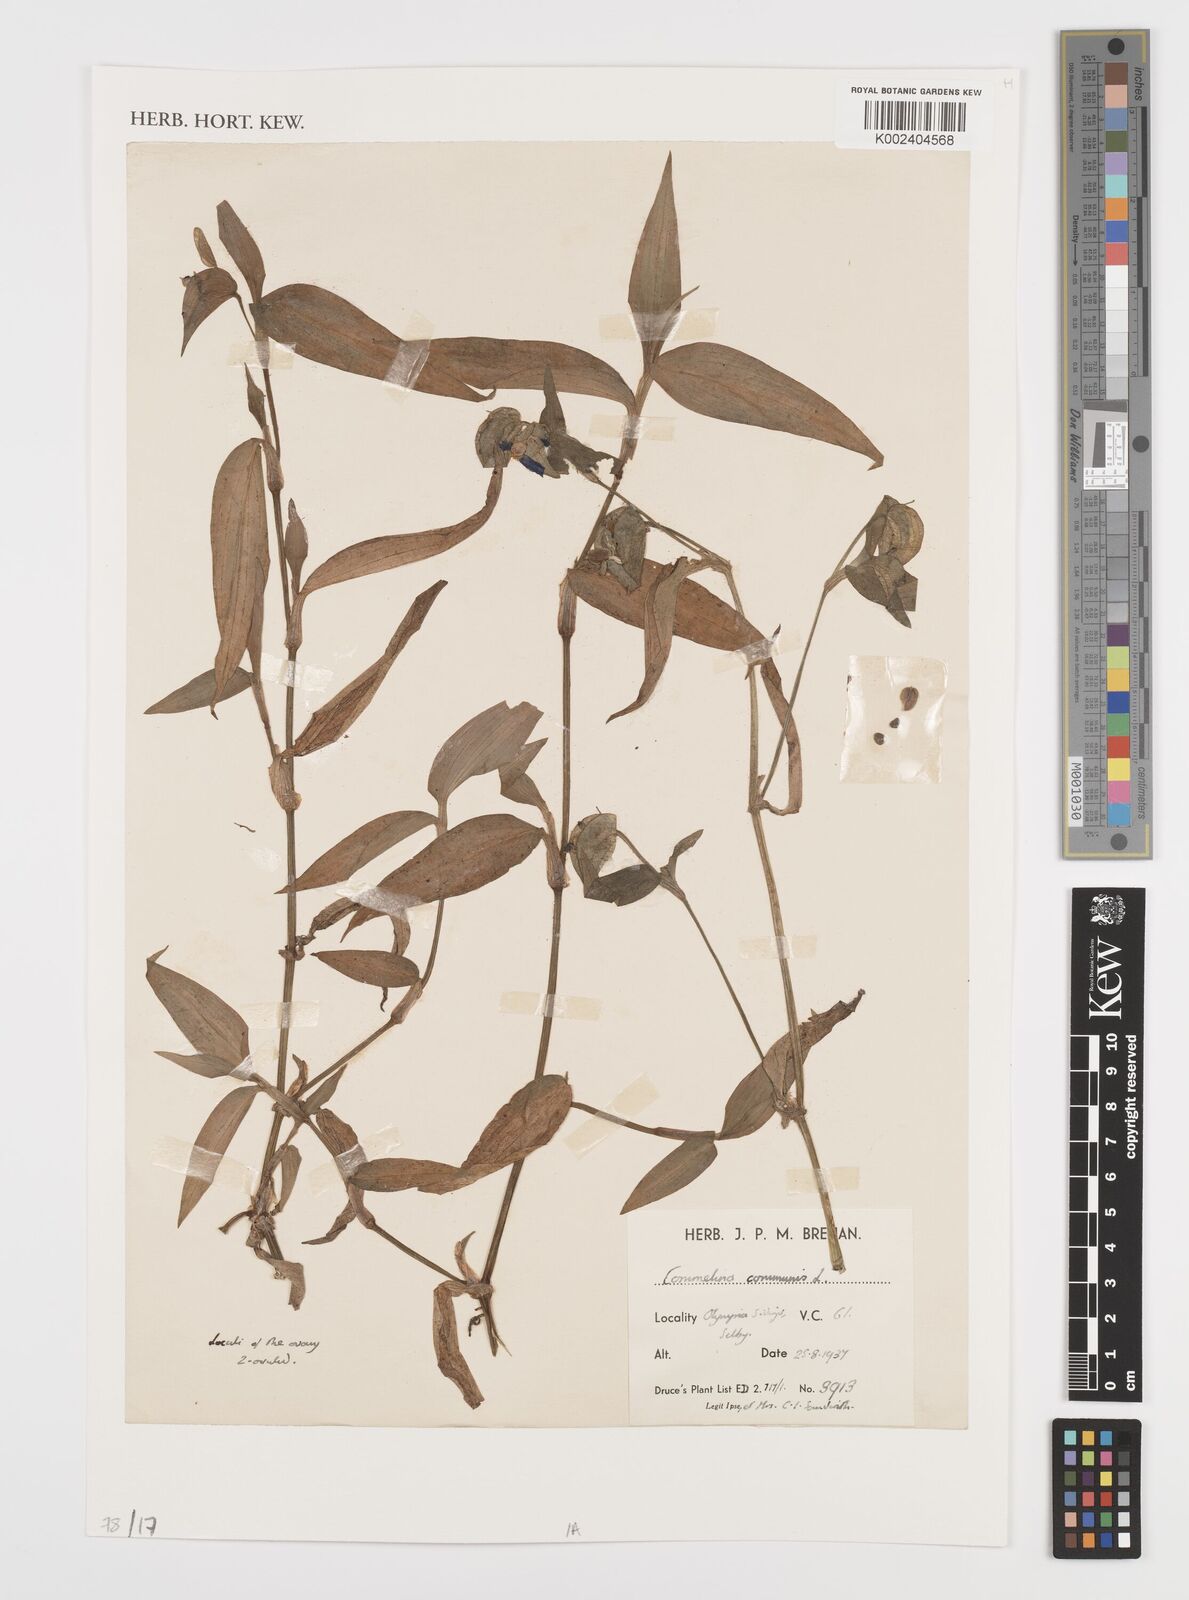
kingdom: Plantae
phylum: Tracheophyta
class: Liliopsida
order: Commelinales
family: Commelinaceae
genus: Commelina
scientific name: Commelina communis
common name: Asiatic dayflower
